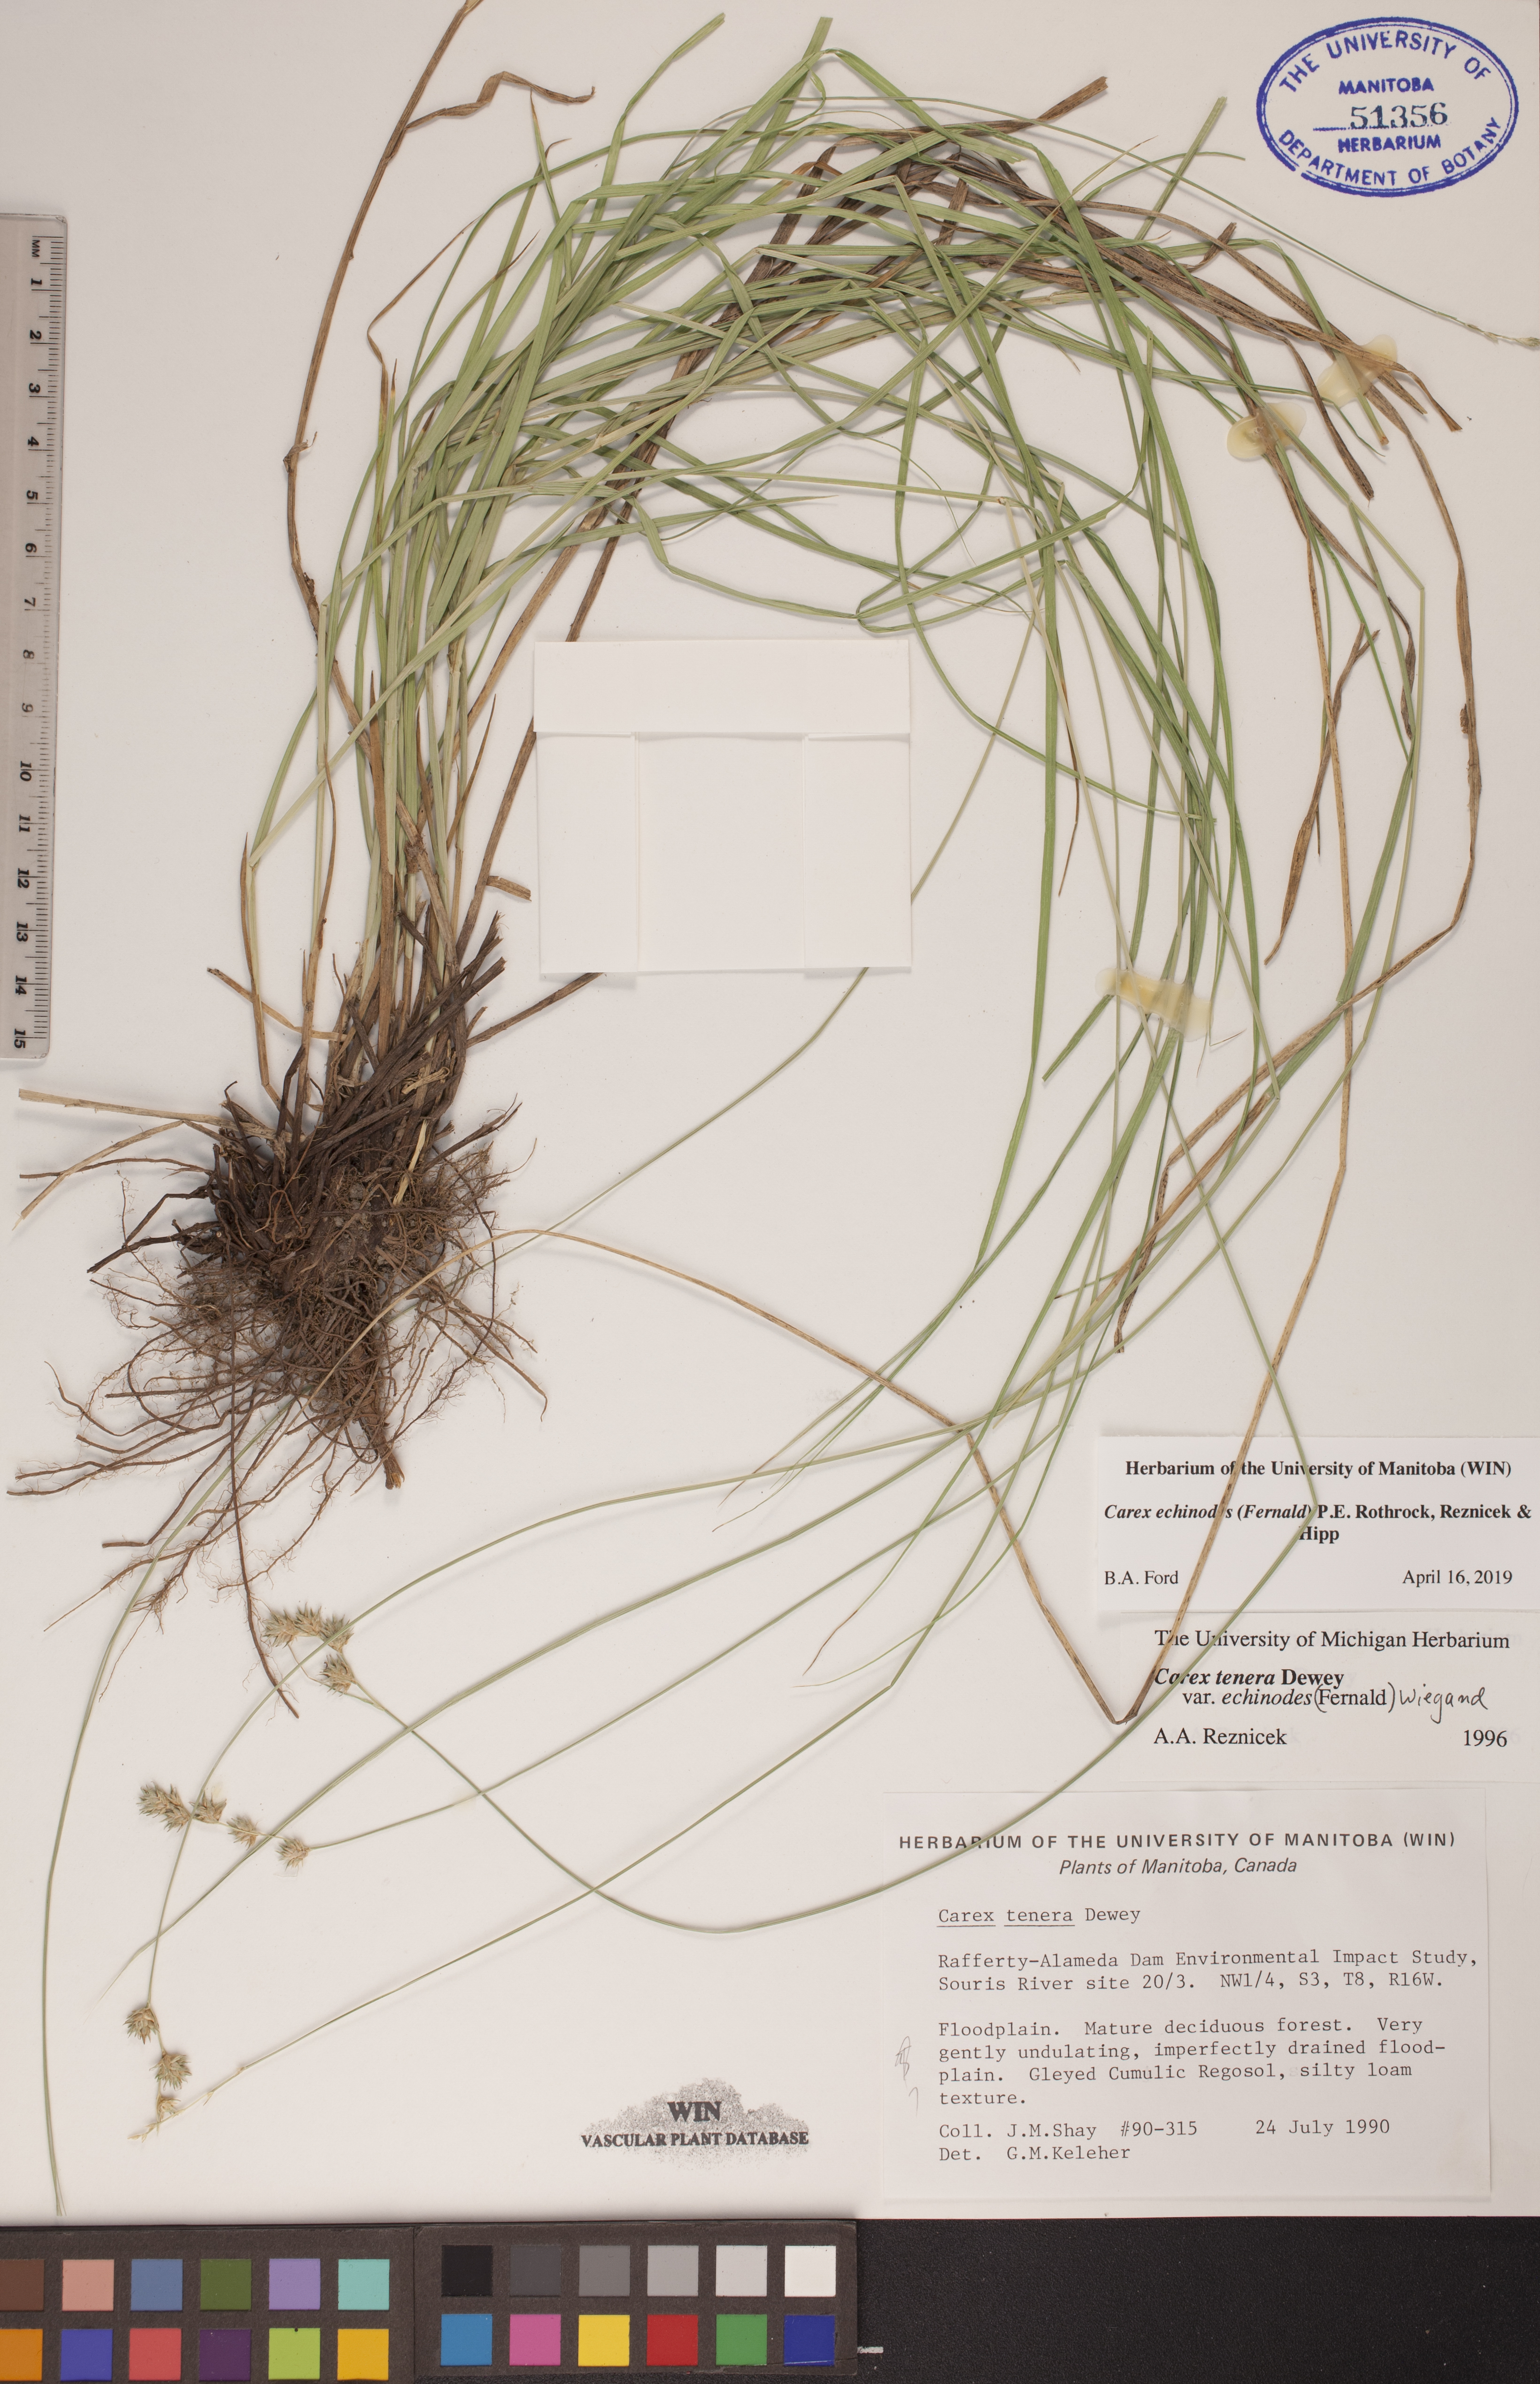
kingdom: Plantae
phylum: Tracheophyta
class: Liliopsida
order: Poales
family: Cyperaceae
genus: Carex
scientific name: Carex echinodes
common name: Marsh straw sedge
